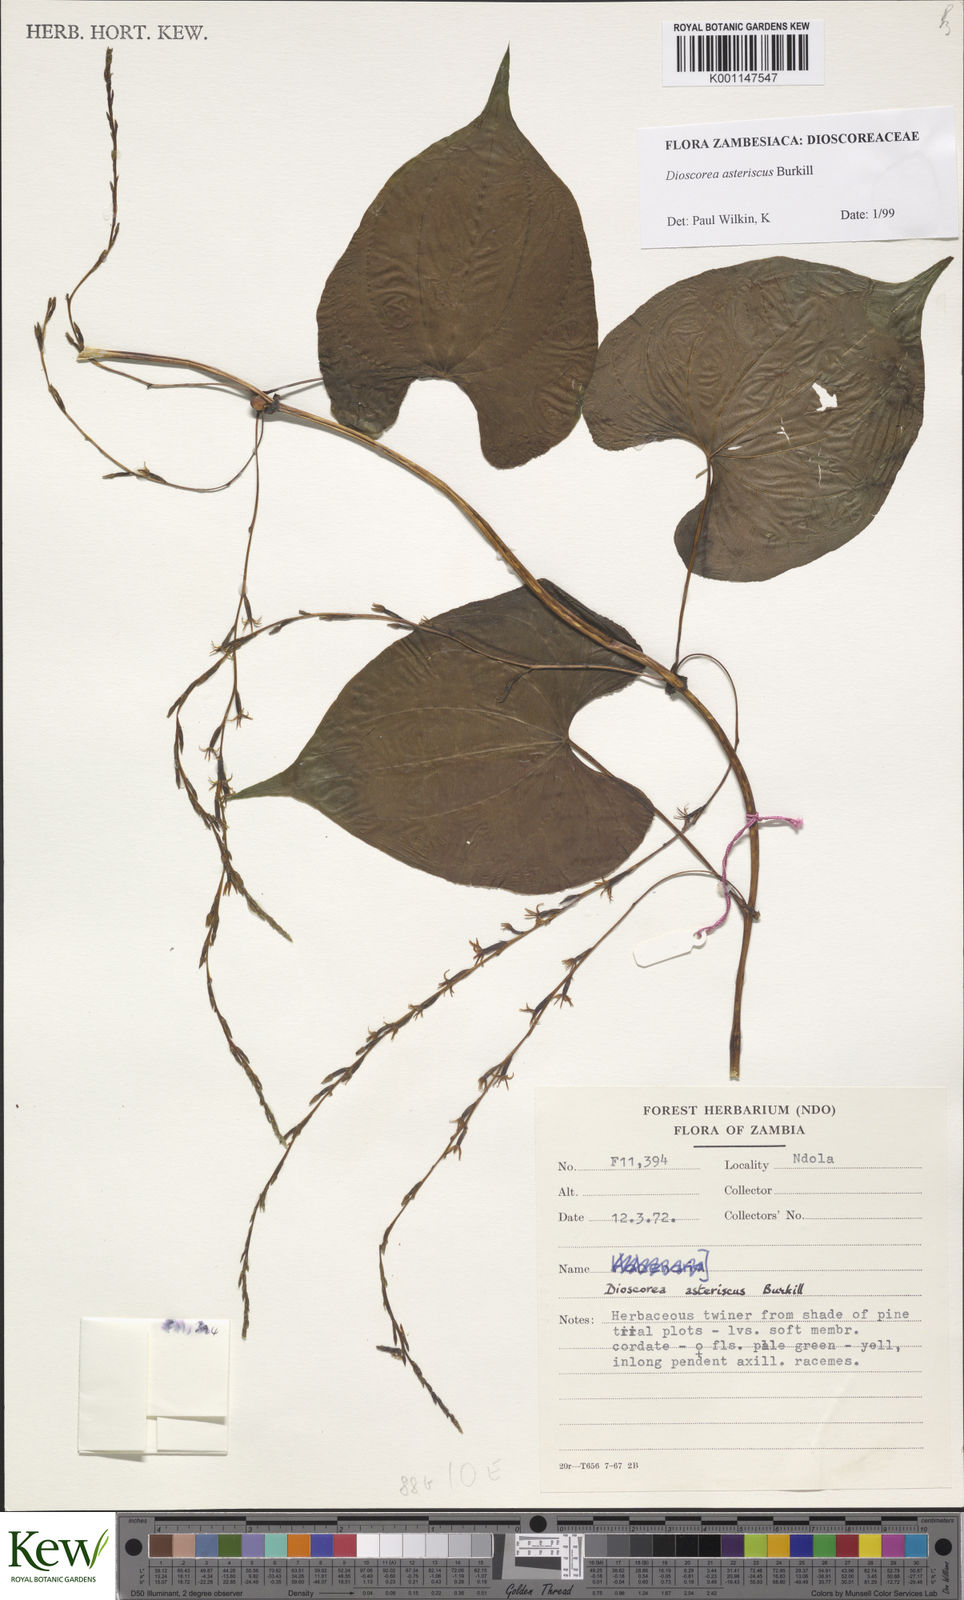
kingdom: Plantae
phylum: Tracheophyta
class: Liliopsida
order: Dioscoreales
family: Dioscoreaceae
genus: Dioscorea
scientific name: Dioscorea asteriscus
